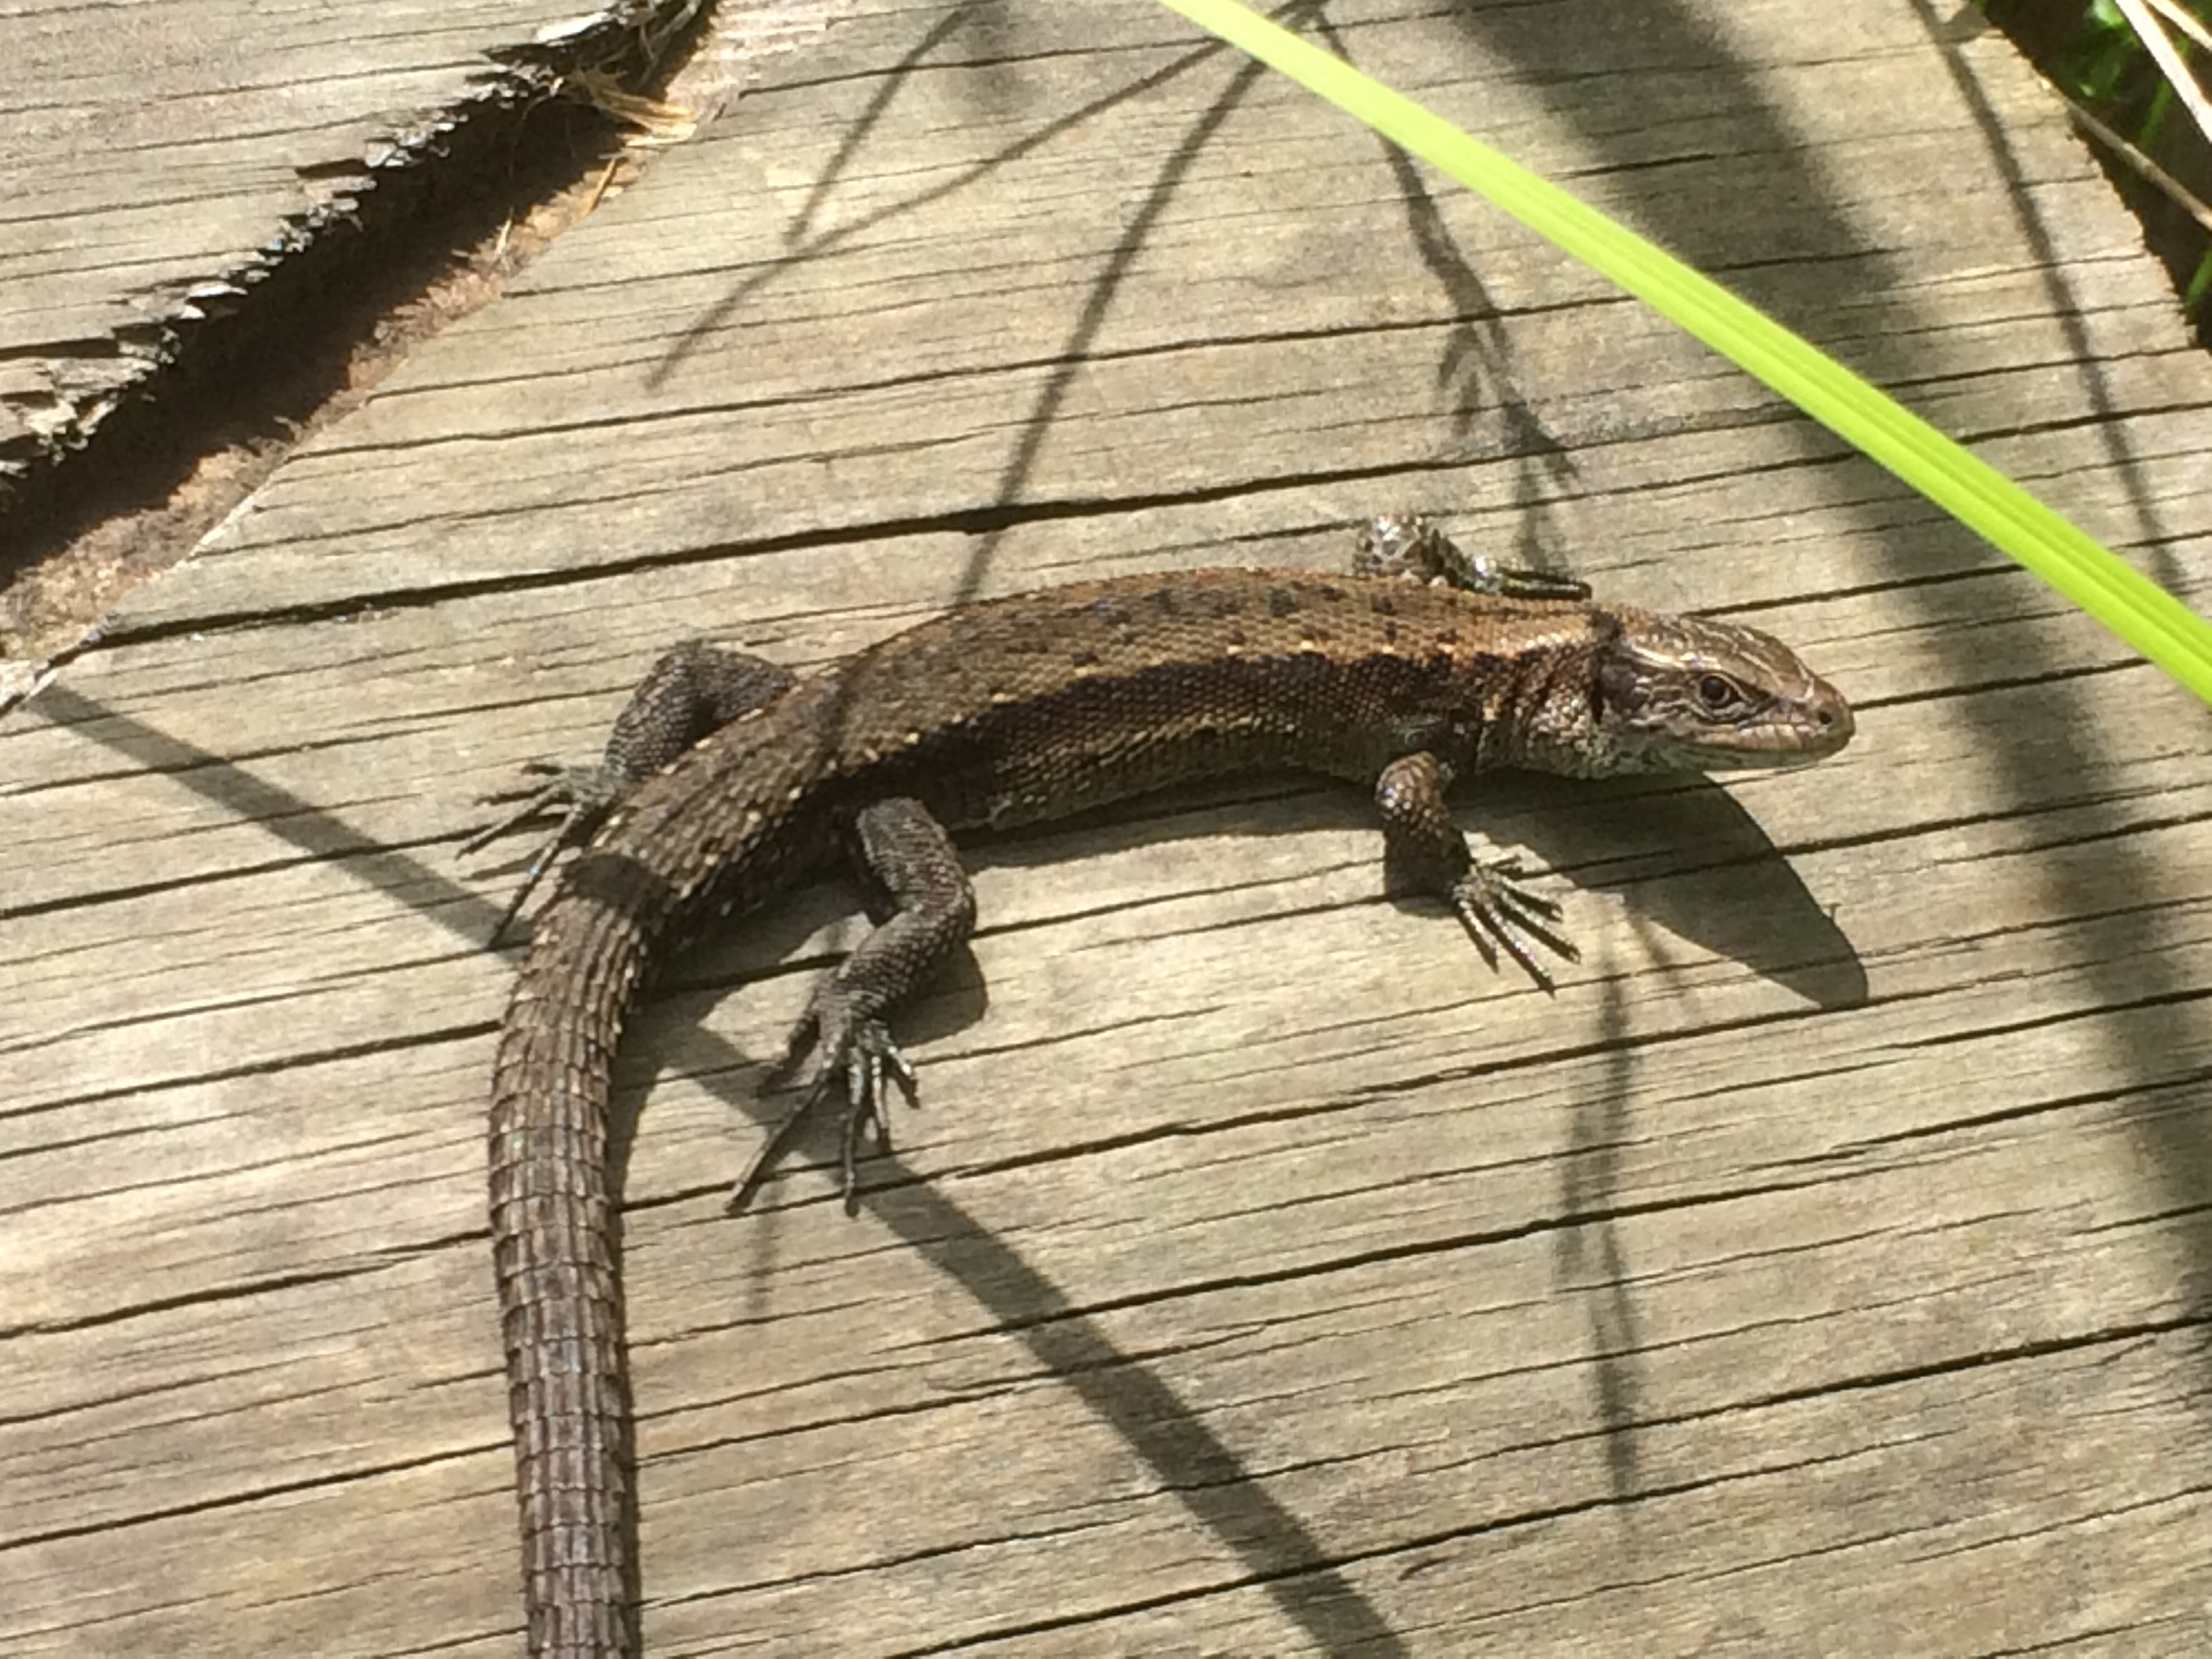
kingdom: Animalia
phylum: Chordata
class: Squamata
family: Lacertidae
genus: Zootoca
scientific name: Zootoca vivipara
